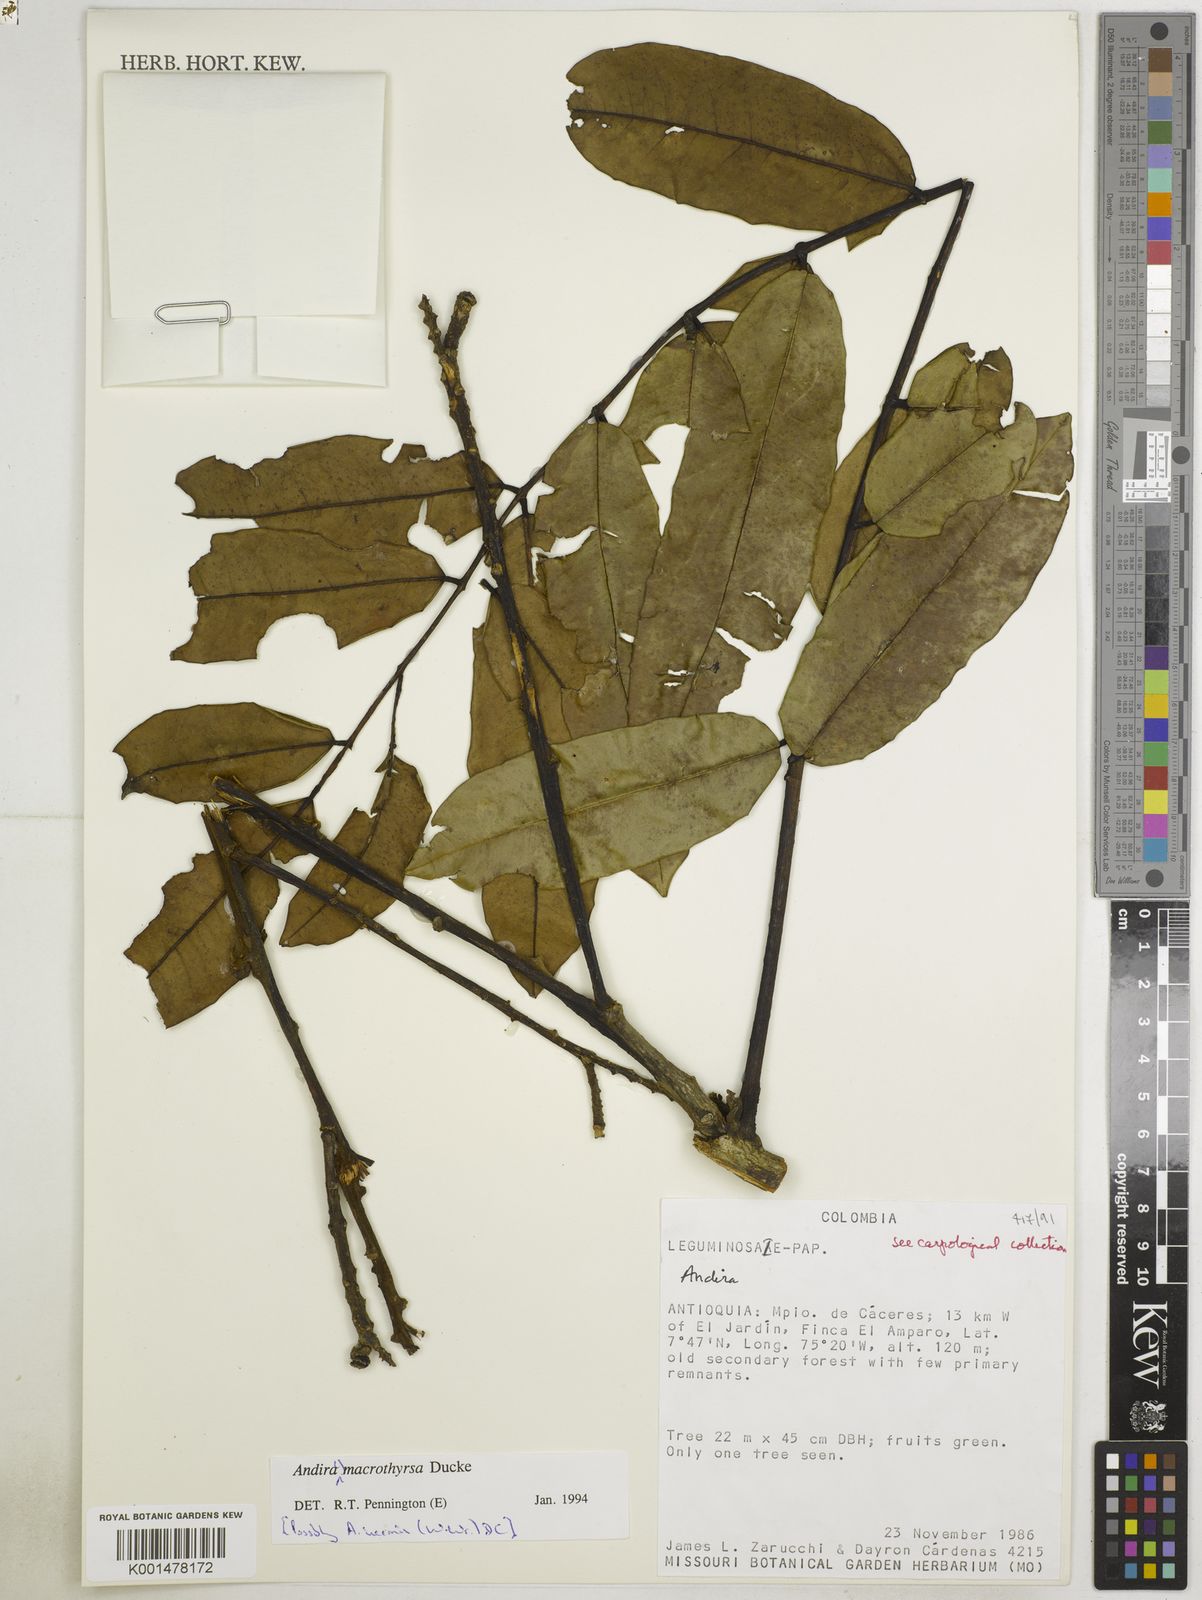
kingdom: Plantae
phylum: Tracheophyta
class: Magnoliopsida
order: Fabales
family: Fabaceae
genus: Andira
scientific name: Andira macrothyrsa
